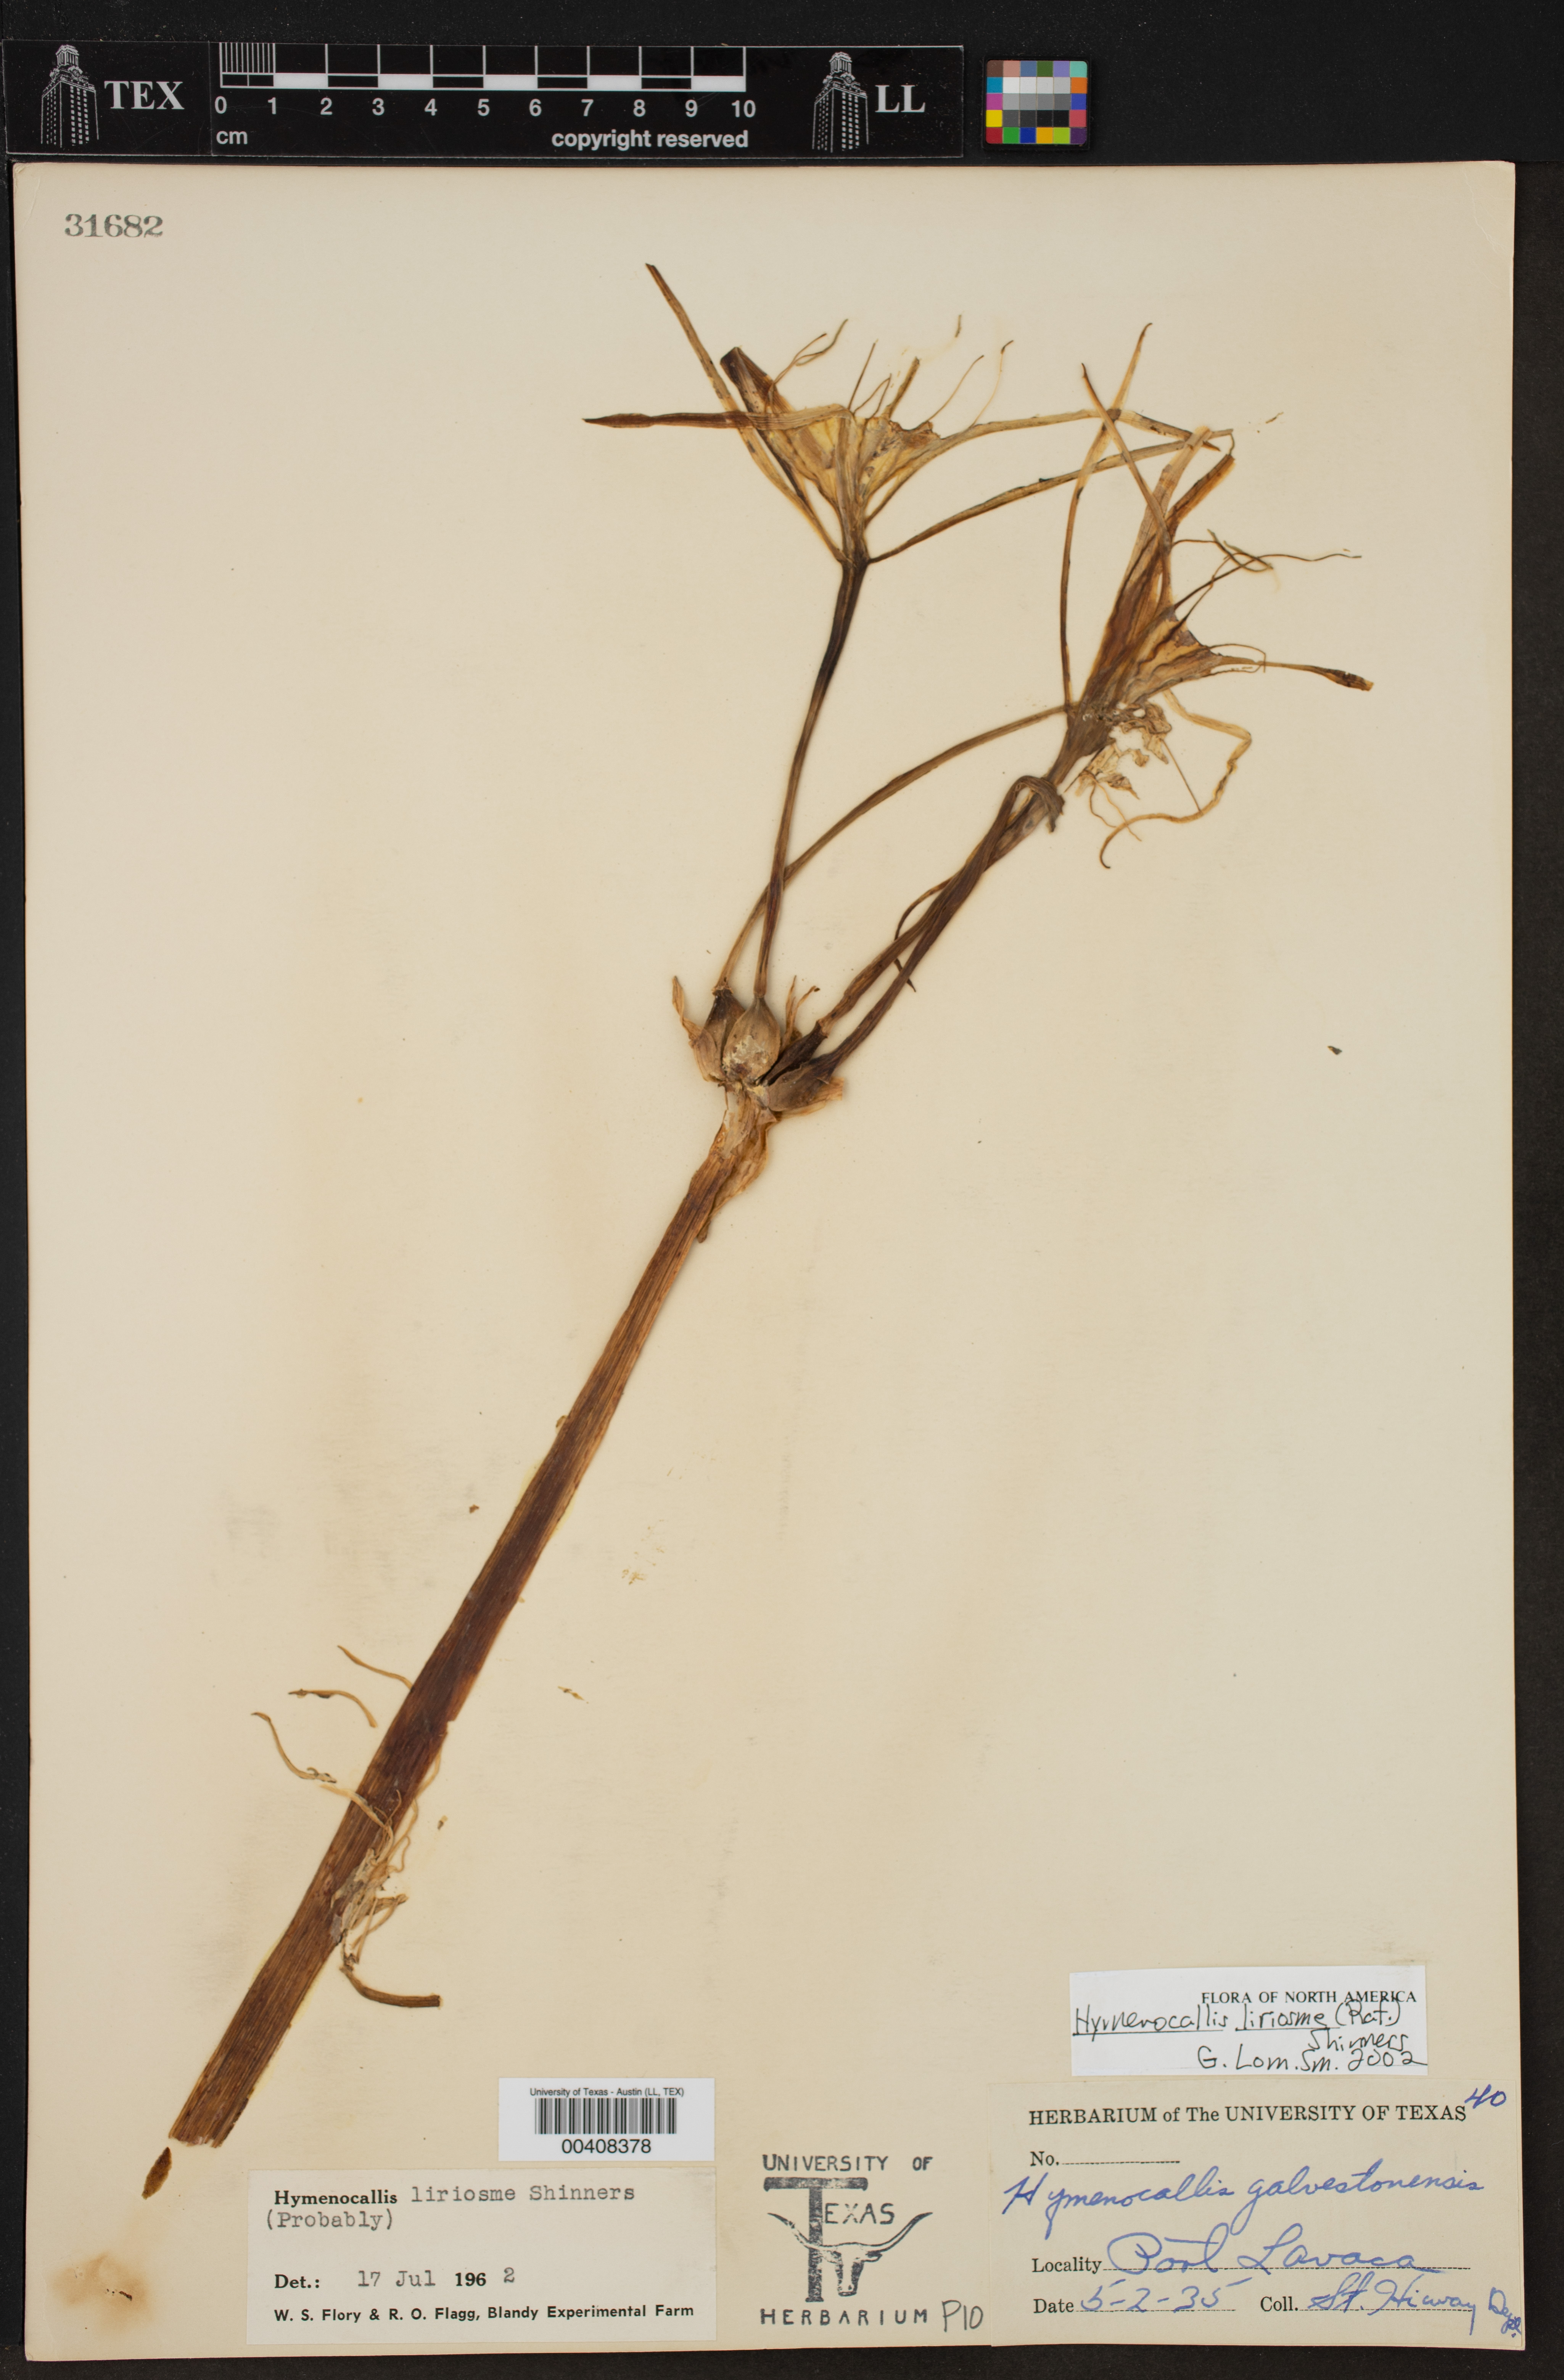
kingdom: Plantae
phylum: Tracheophyta
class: Liliopsida
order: Asparagales
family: Amaryllidaceae
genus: Hymenocallis
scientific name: Hymenocallis liriosme
